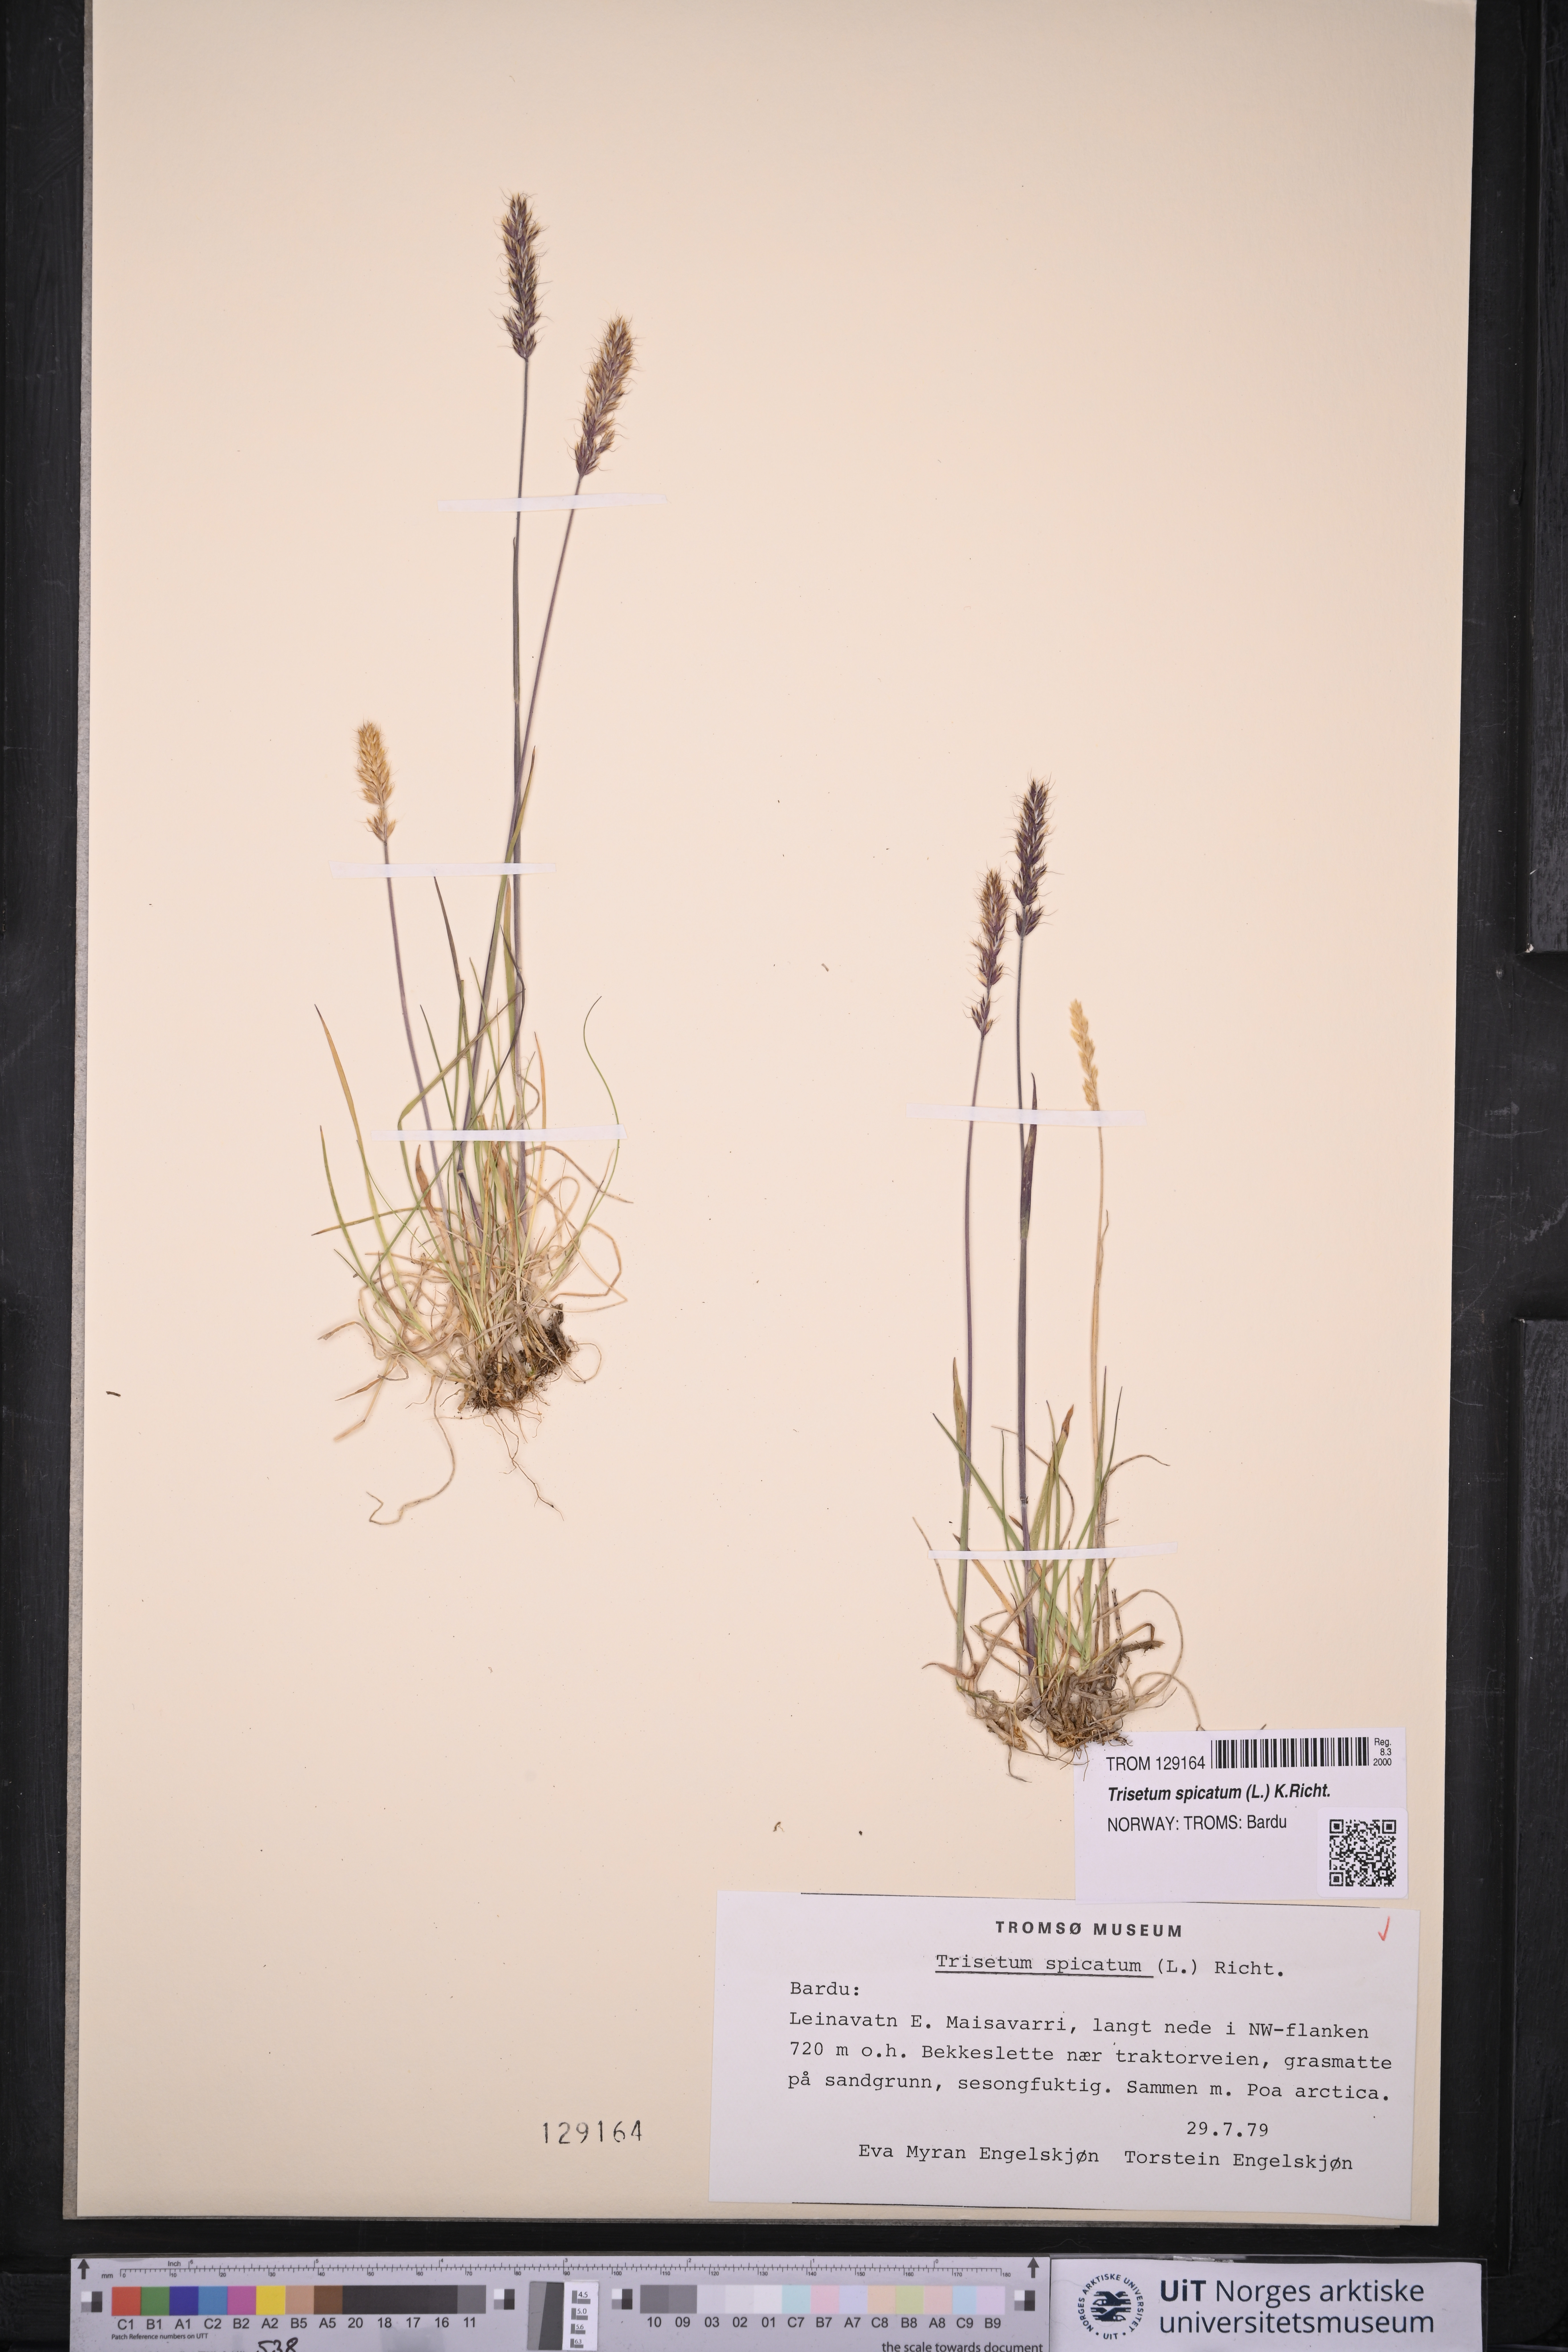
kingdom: Plantae
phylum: Tracheophyta
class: Liliopsida
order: Poales
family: Poaceae
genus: Koeleria
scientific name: Koeleria spicata
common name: Mountain trisetum
